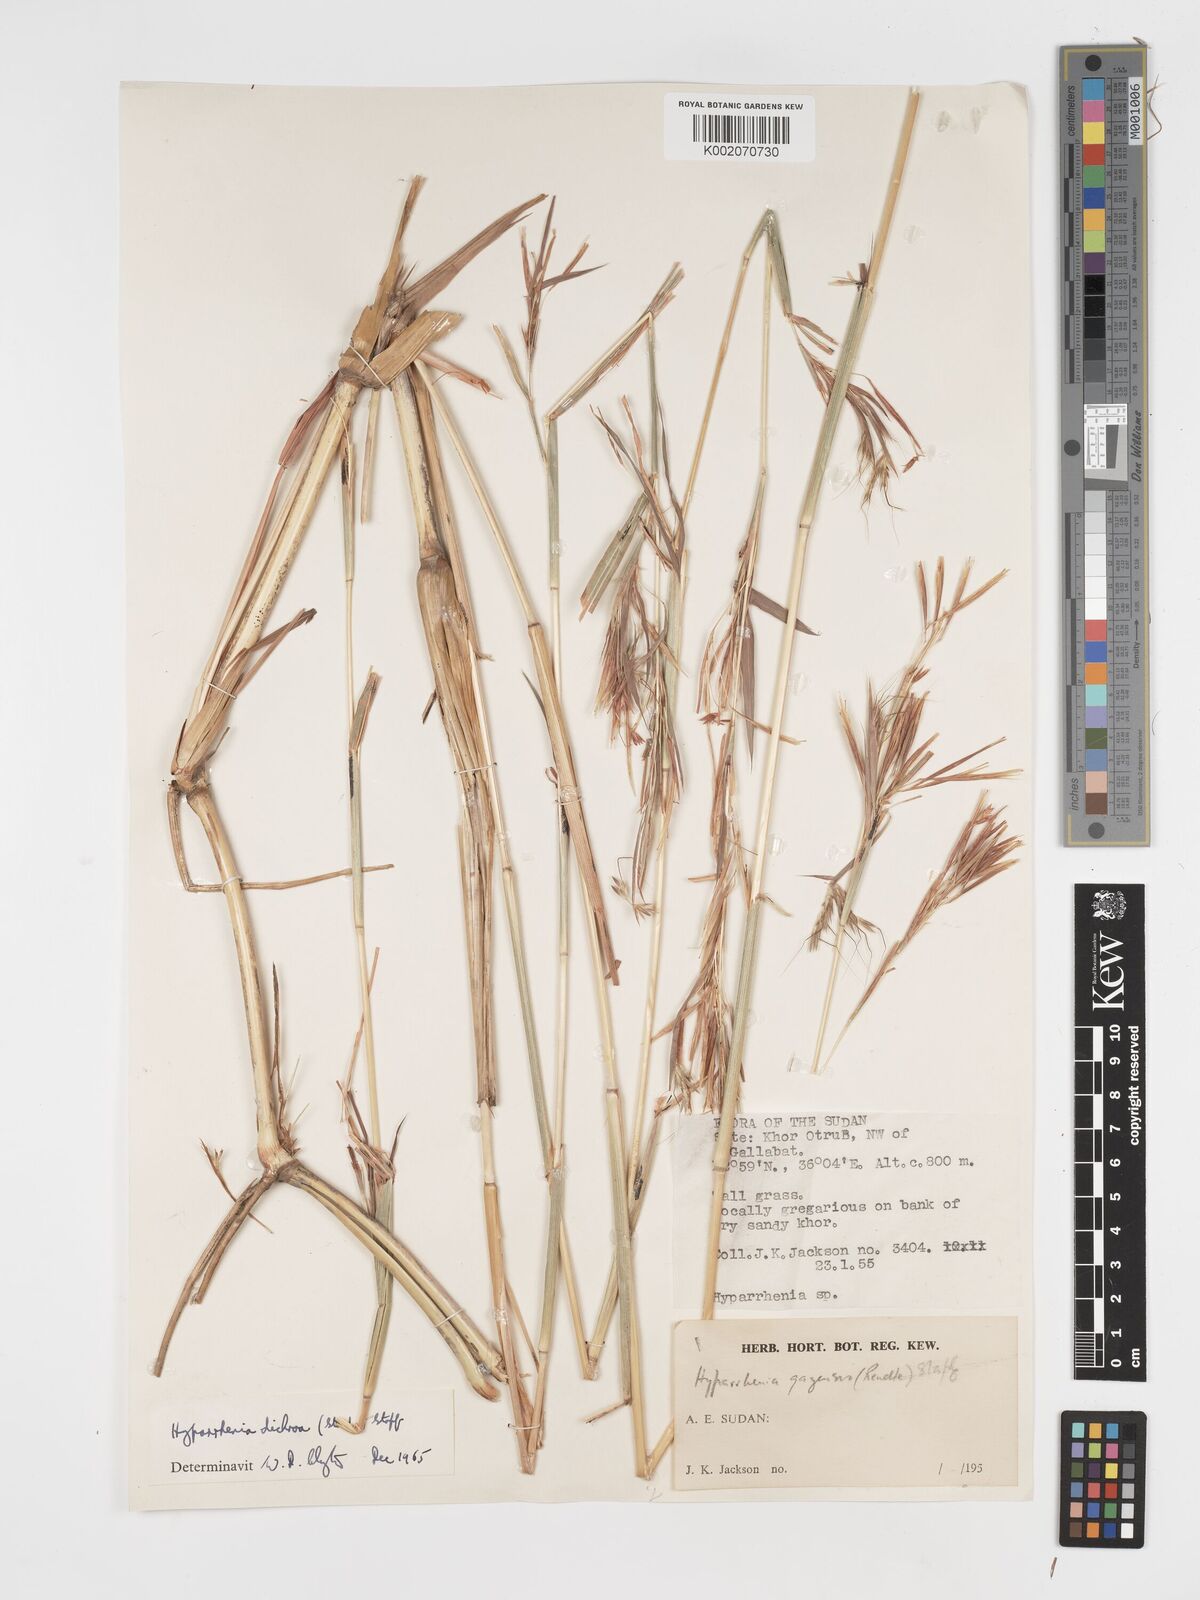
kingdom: Plantae
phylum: Tracheophyta
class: Liliopsida
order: Poales
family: Poaceae
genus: Hyparrhenia
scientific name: Hyparrhenia dichroa
